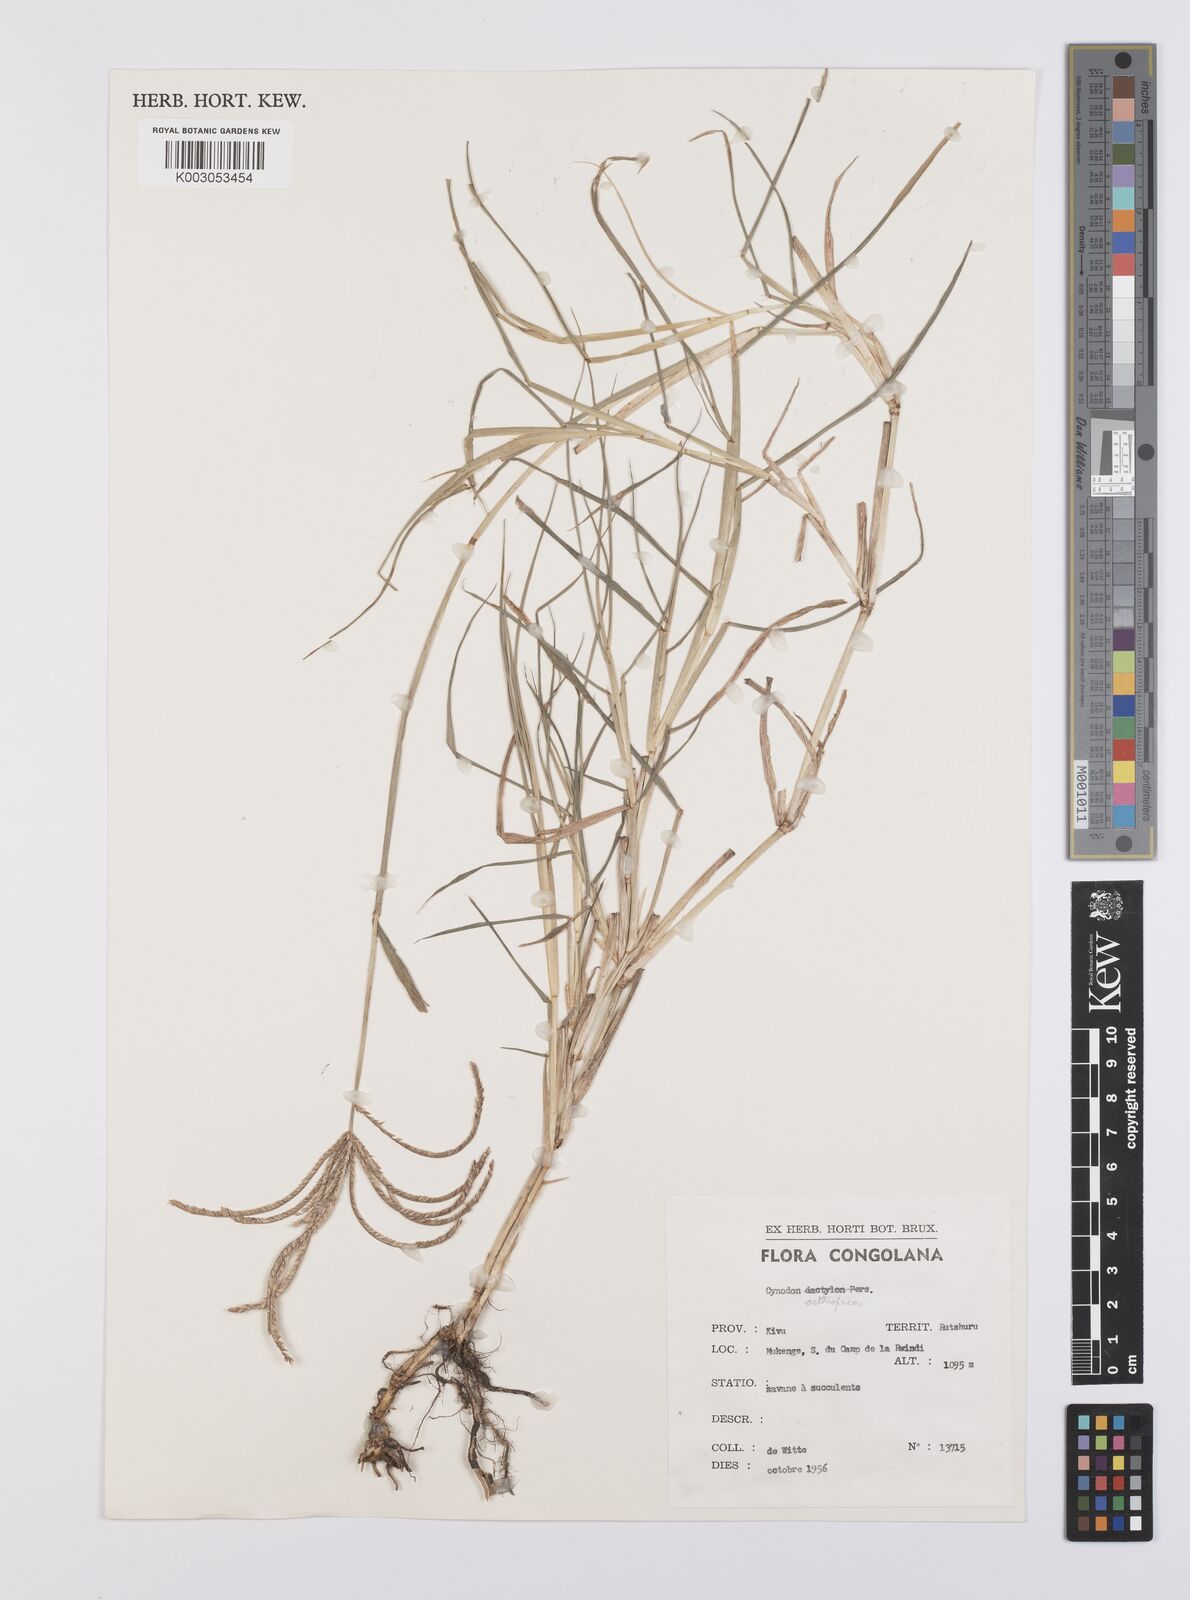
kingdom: Plantae
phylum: Tracheophyta
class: Liliopsida
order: Poales
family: Poaceae
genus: Cynodon
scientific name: Cynodon aethiopicus
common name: Ethiopian dogstooth grass
